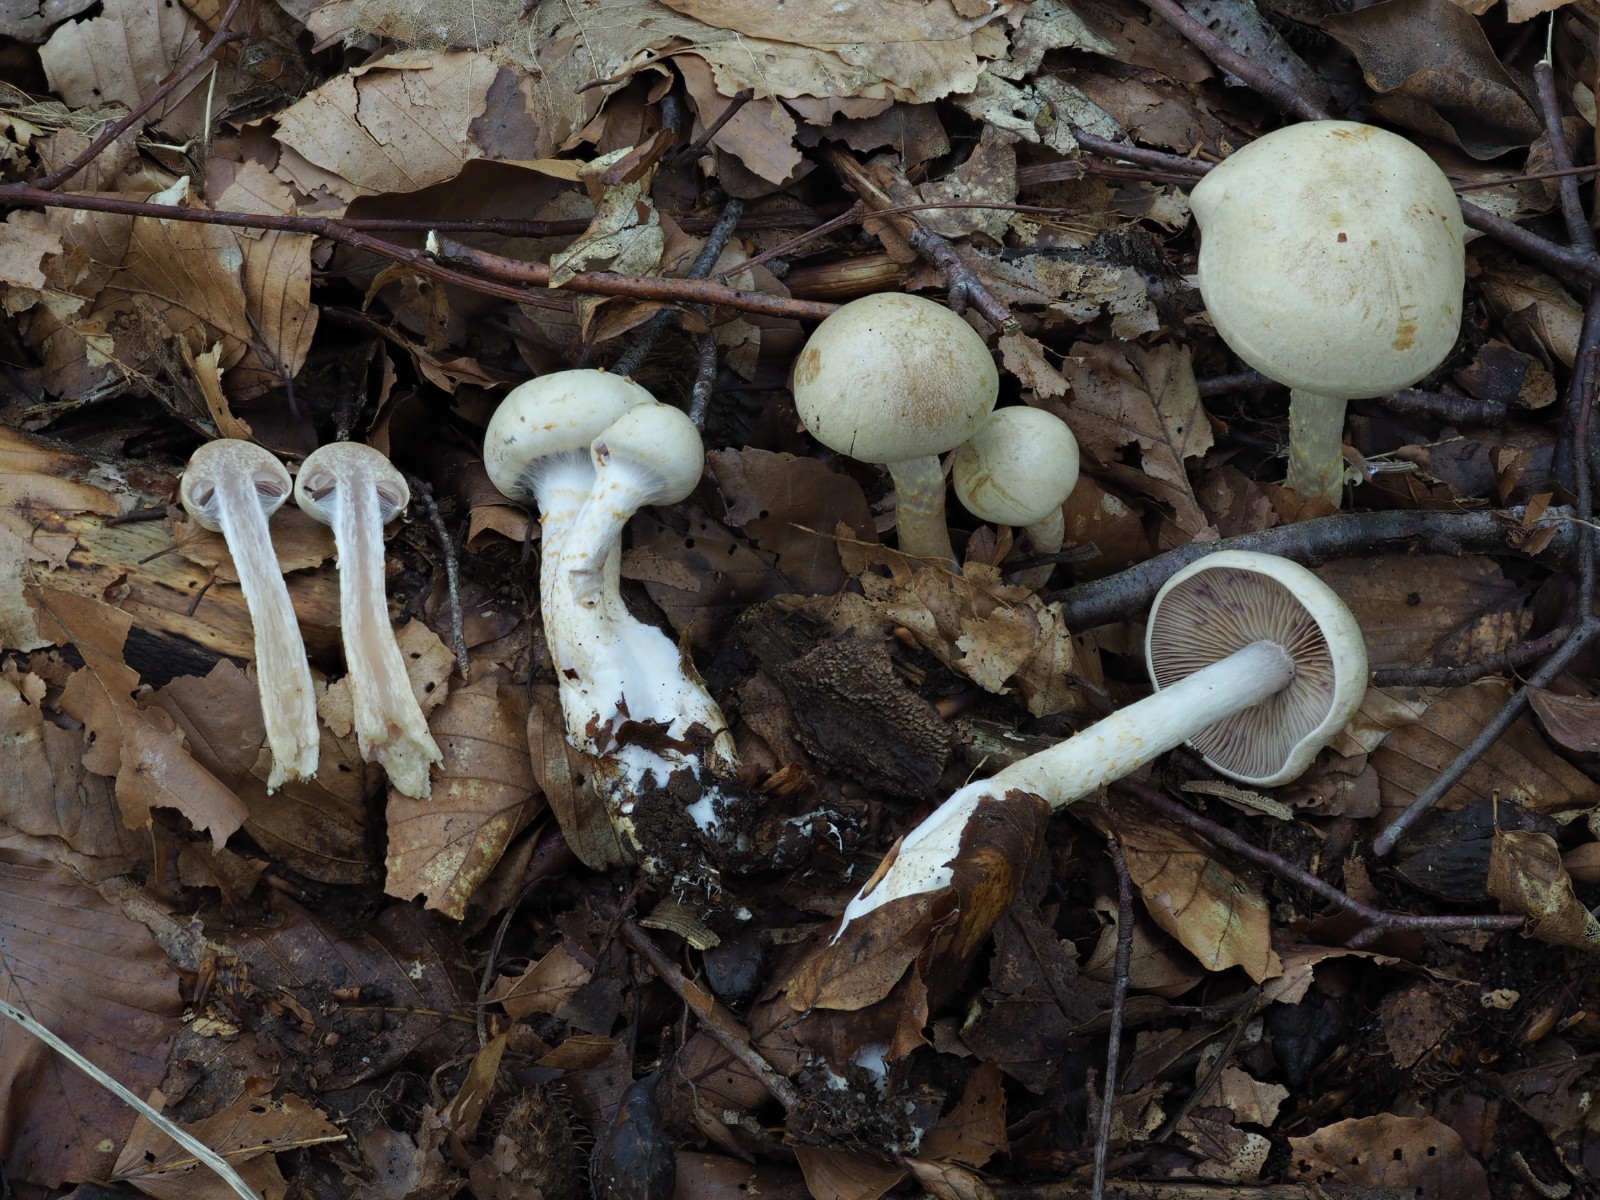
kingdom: Fungi
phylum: Basidiomycota
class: Agaricomycetes
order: Agaricales
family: Cortinariaceae
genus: Cortinarius
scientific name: Cortinarius
